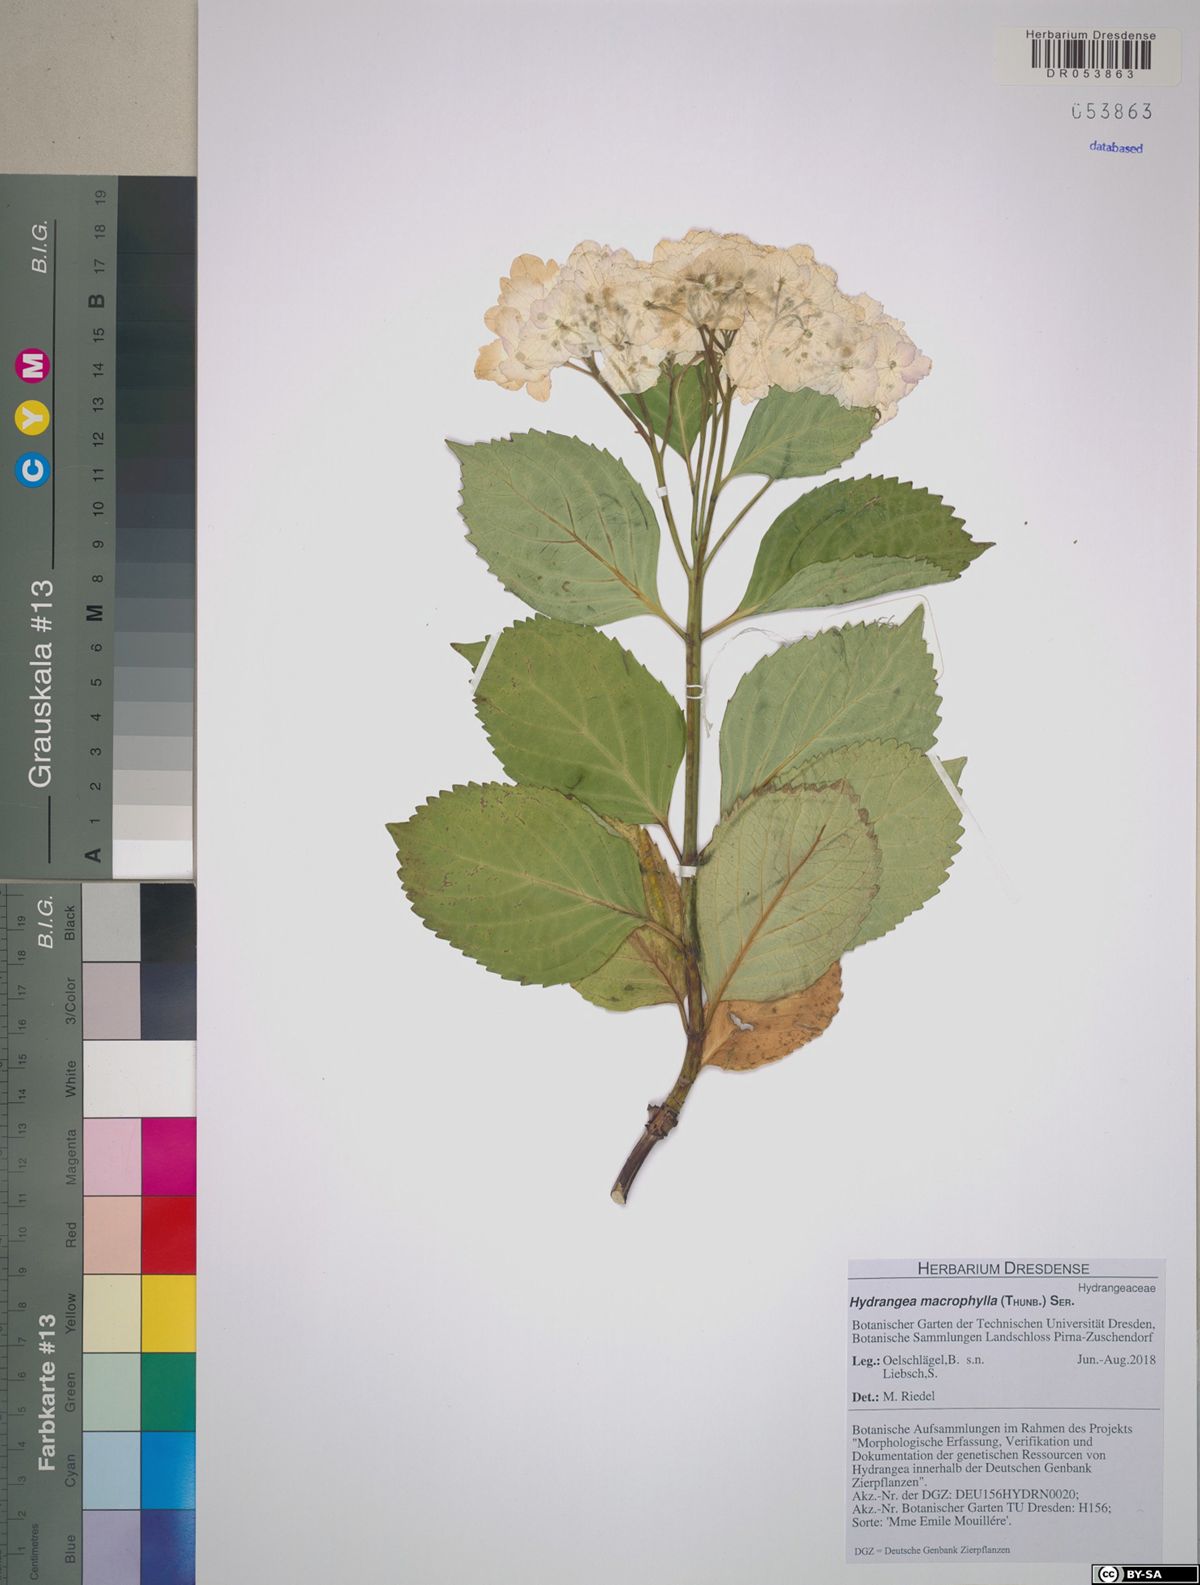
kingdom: Plantae
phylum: Tracheophyta
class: Magnoliopsida
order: Cornales
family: Hydrangeaceae
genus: Hydrangea
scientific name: Hydrangea macrophylla
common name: Hydrangea
